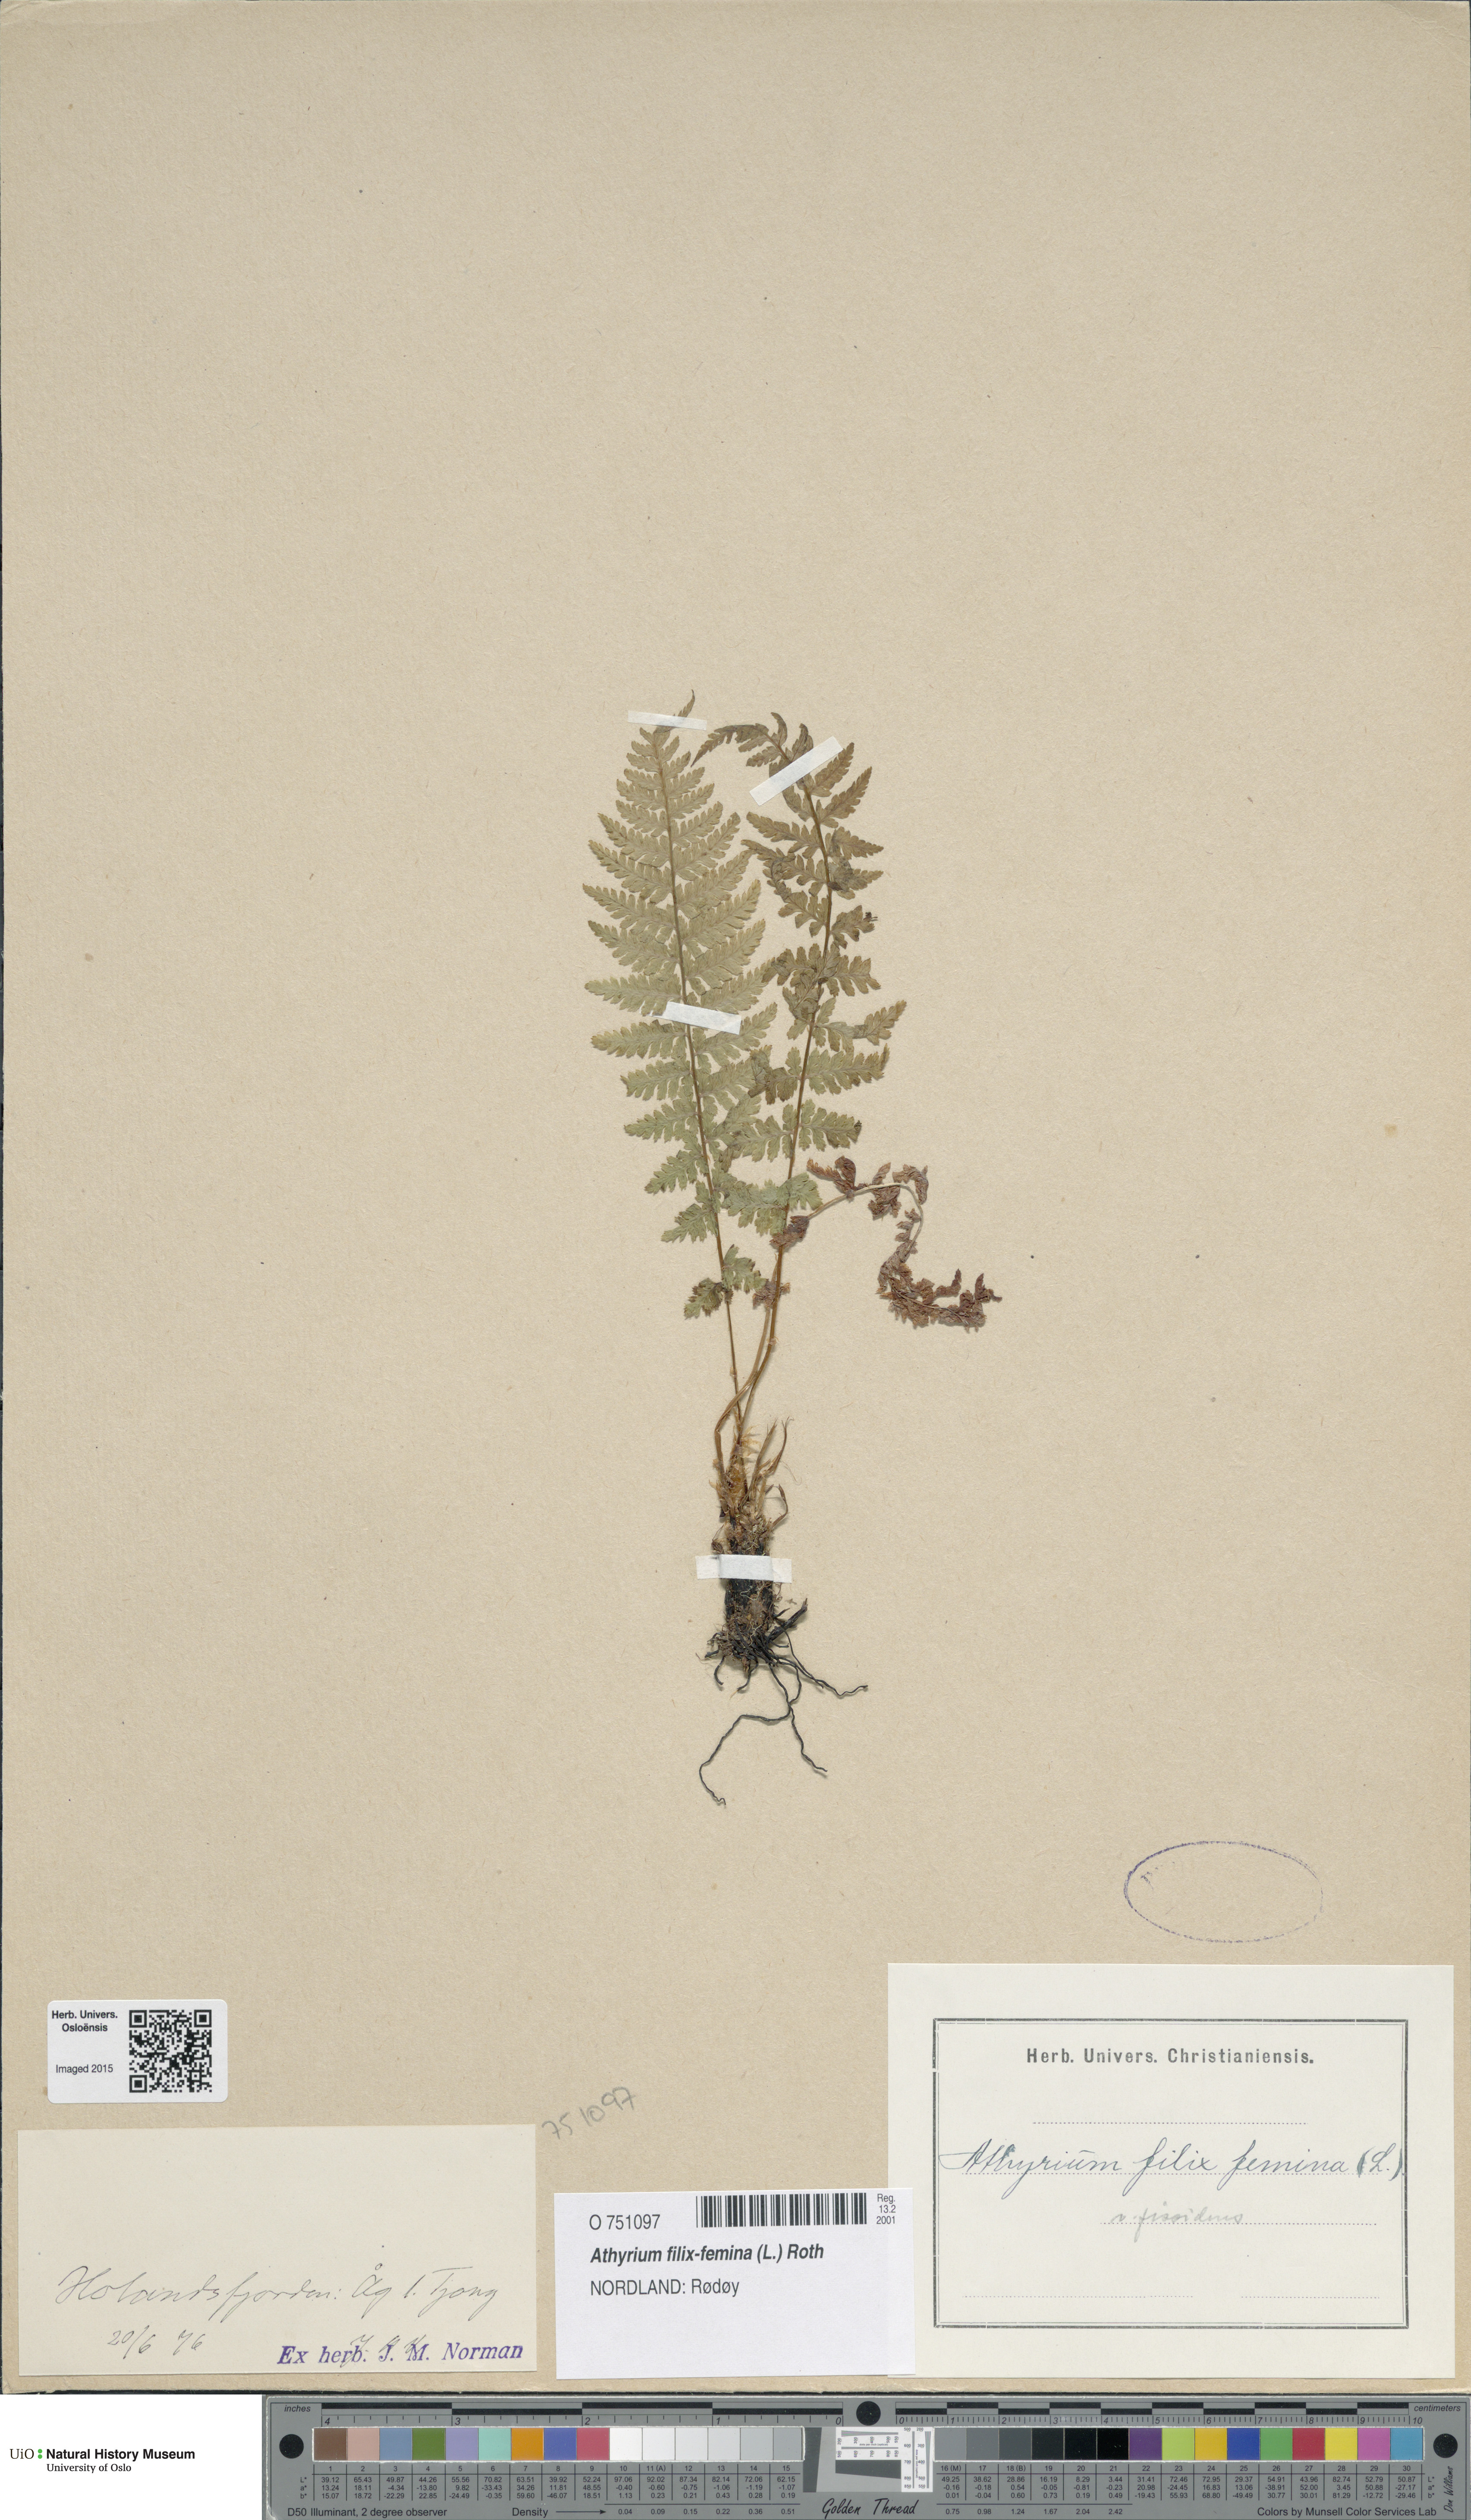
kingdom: Plantae
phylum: Tracheophyta
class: Polypodiopsida
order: Polypodiales
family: Athyriaceae
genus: Athyrium
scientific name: Athyrium filix-femina
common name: Lady fern
